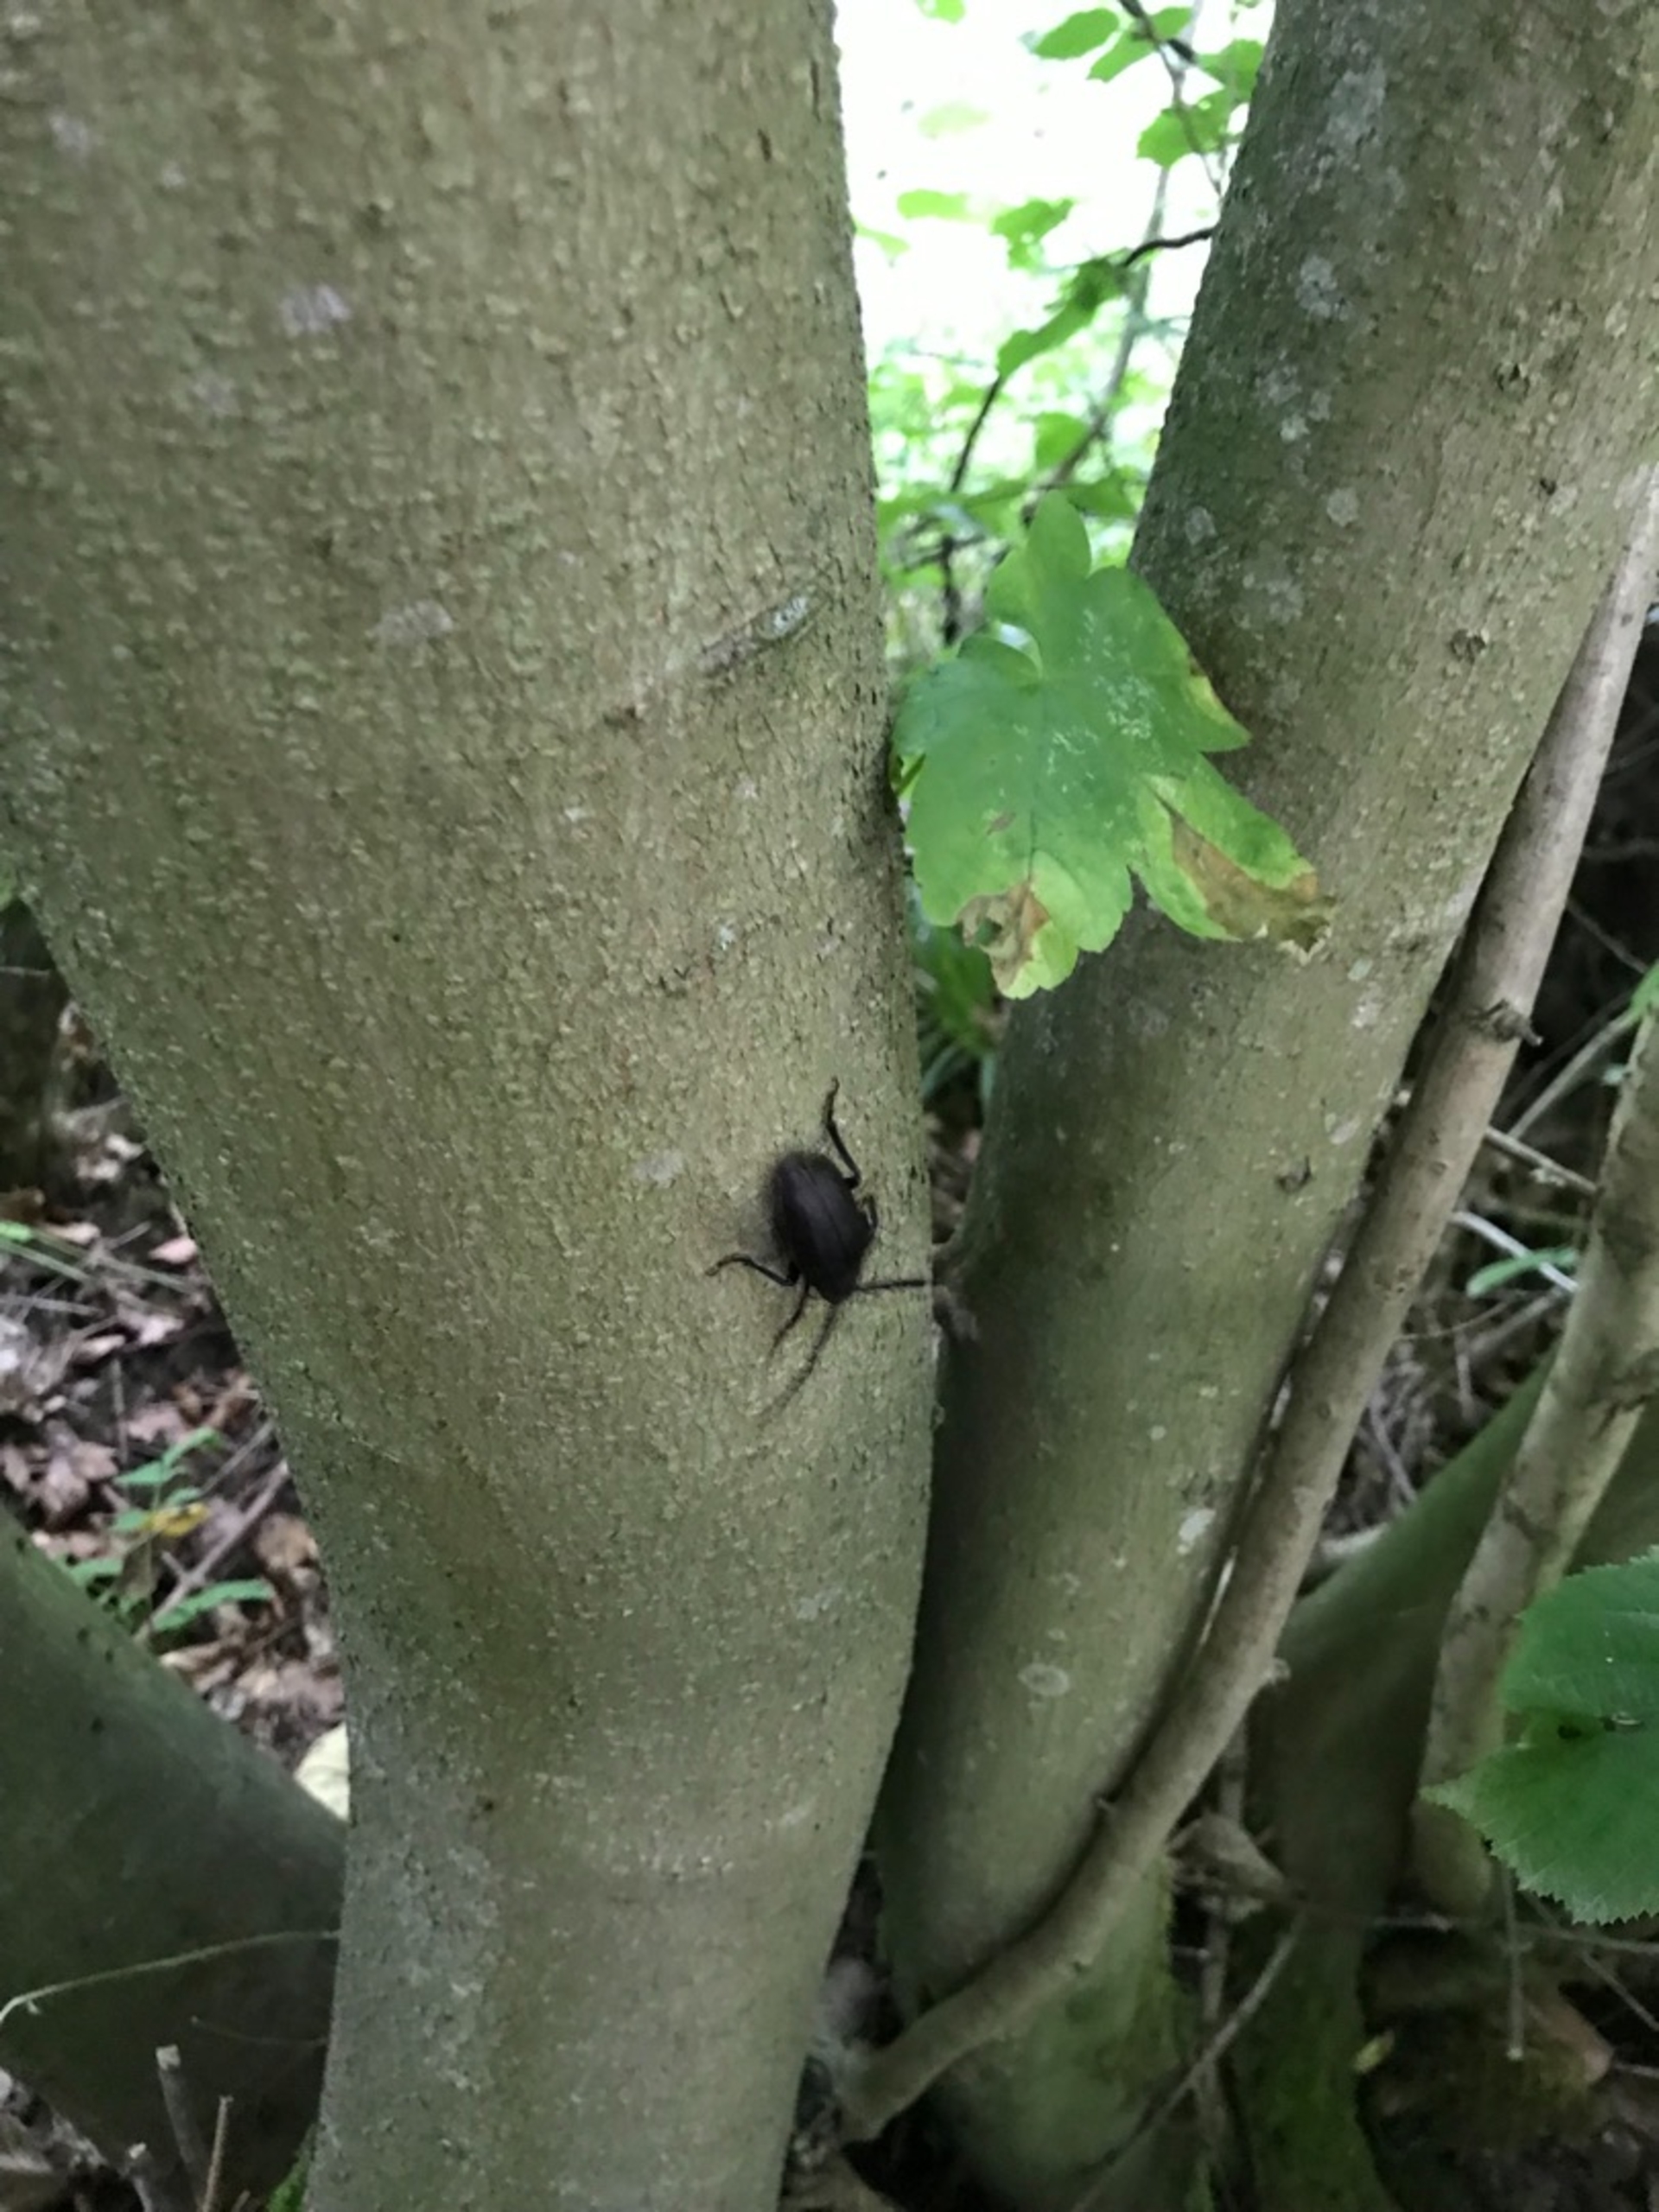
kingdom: Animalia
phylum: Arthropoda
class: Insecta
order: Coleoptera
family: Cerambycidae
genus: Prionus
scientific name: Prionus coriarius
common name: Garver
